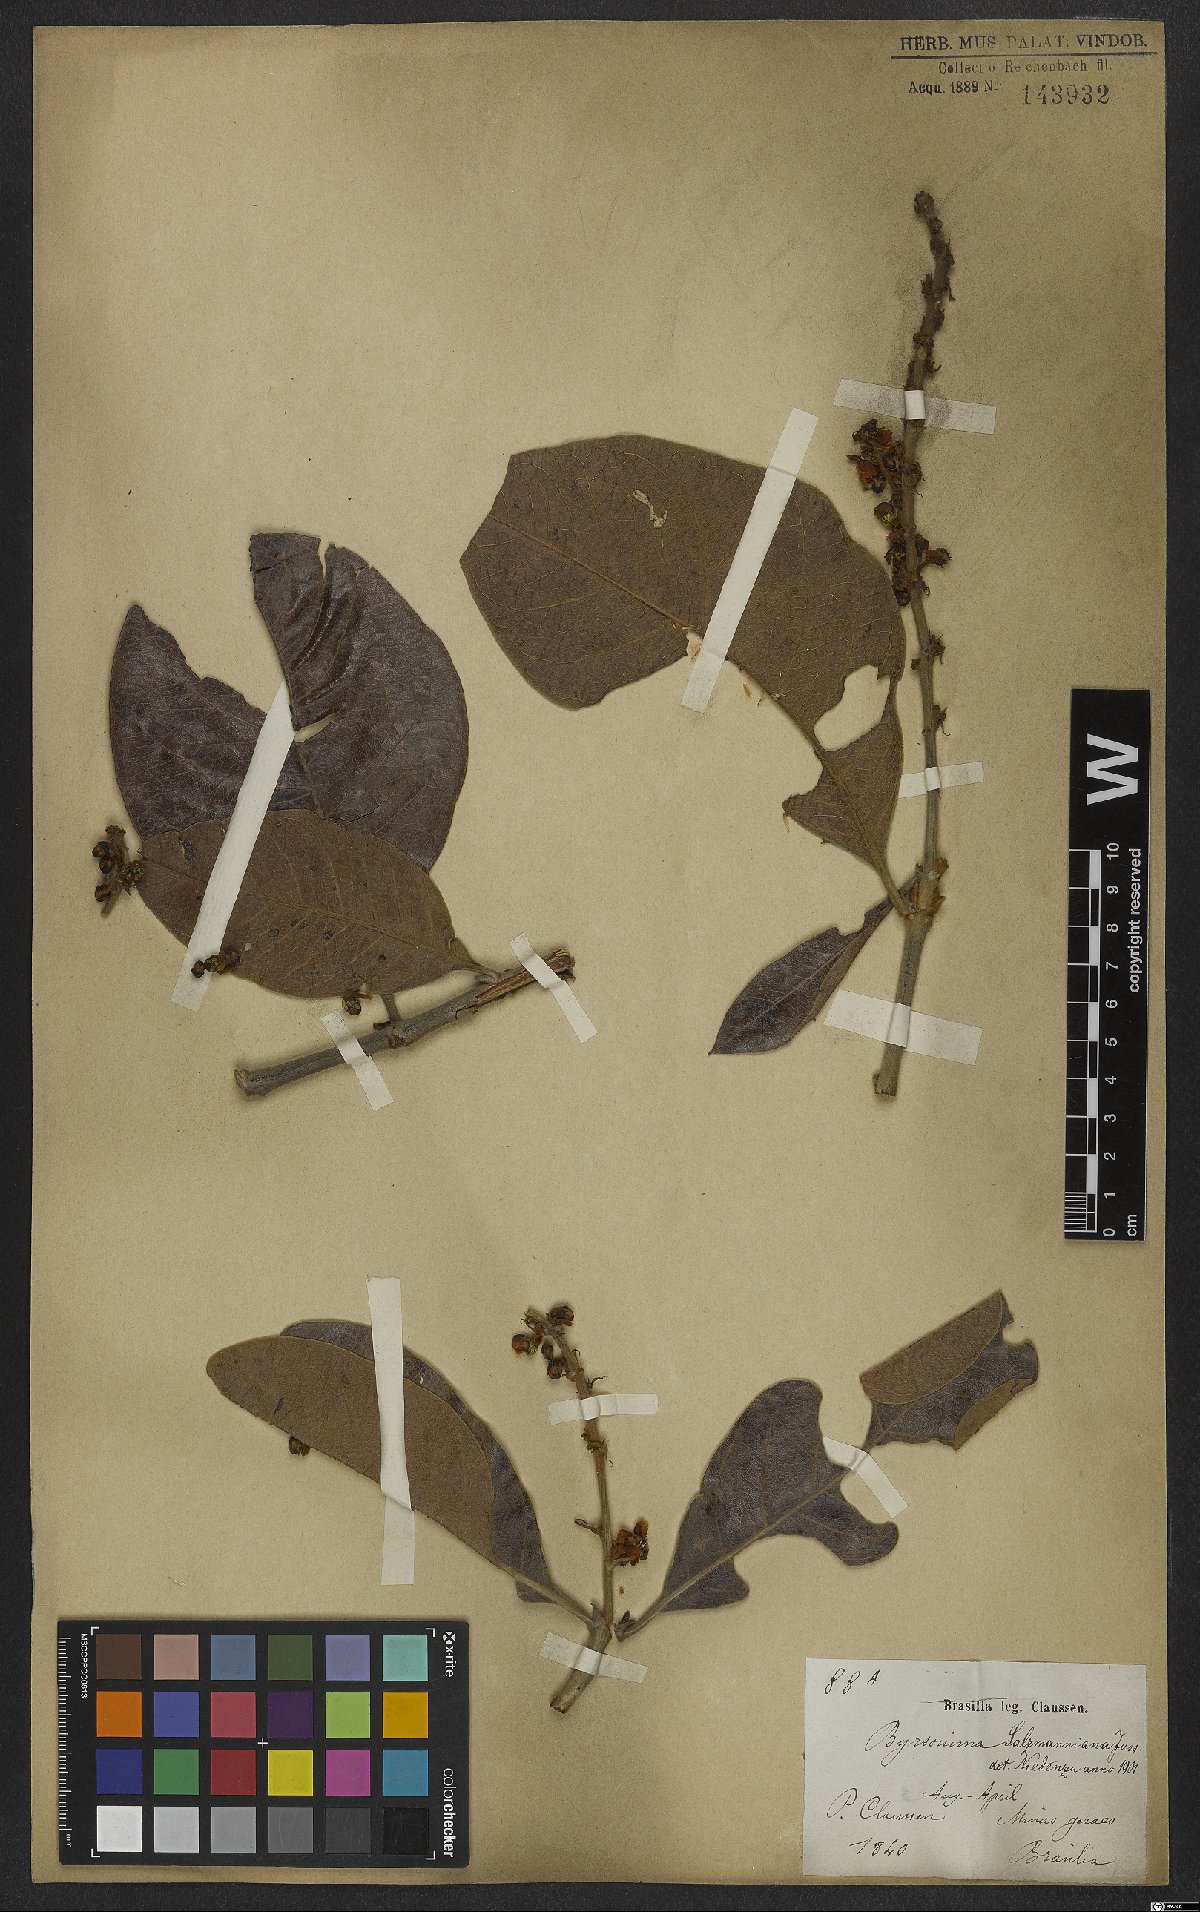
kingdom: Plantae
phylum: Tracheophyta
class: Magnoliopsida
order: Malpighiales
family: Malpighiaceae
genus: Byrsonima
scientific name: Byrsonima salzmanniana
